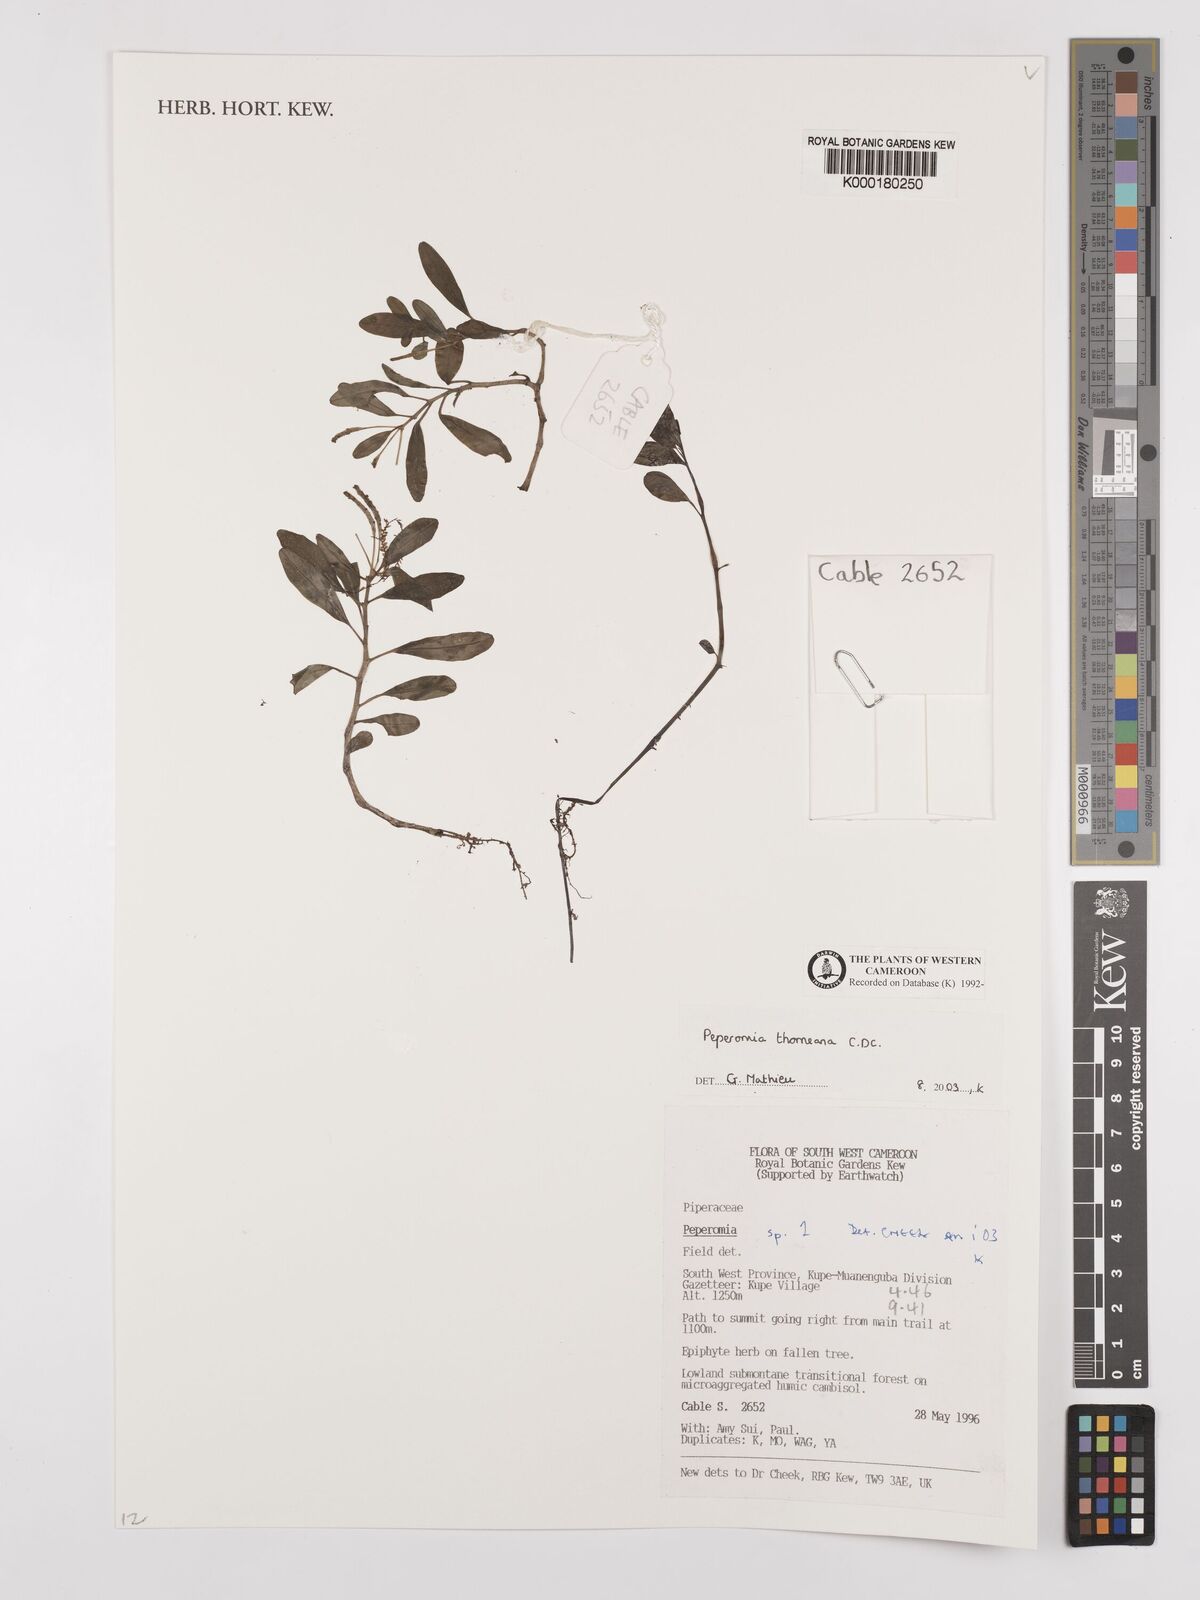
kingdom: Plantae
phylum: Tracheophyta
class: Magnoliopsida
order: Piperales
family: Piperaceae
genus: Peperomia
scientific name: Peperomia thomeana
